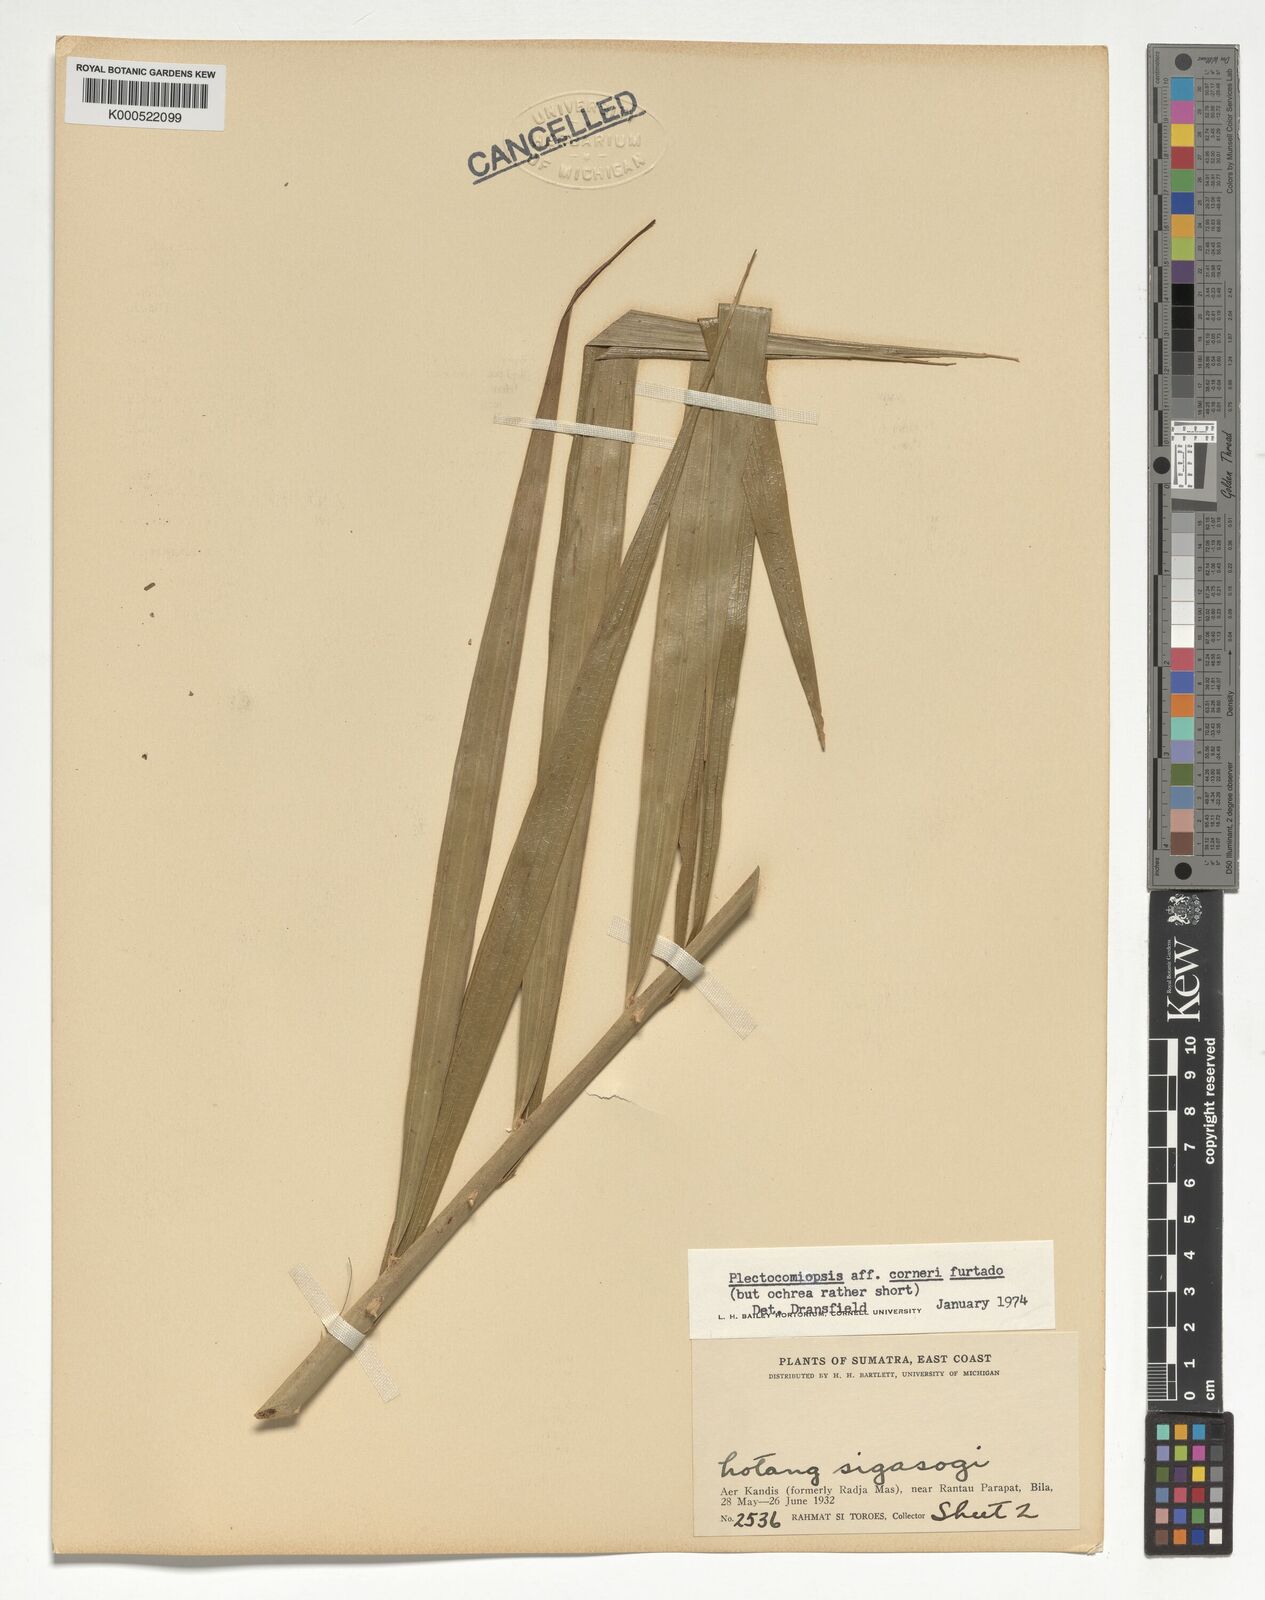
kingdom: Plantae
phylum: Tracheophyta
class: Liliopsida
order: Arecales
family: Arecaceae
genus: Plectocomiopsis
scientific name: Plectocomiopsis corneri
